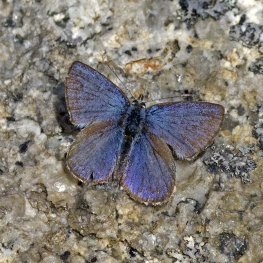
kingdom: Animalia
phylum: Arthropoda
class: Insecta
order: Lepidoptera
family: Lycaenidae
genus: Lycaeides
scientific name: Lycaeides idas
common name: Northern Blue
